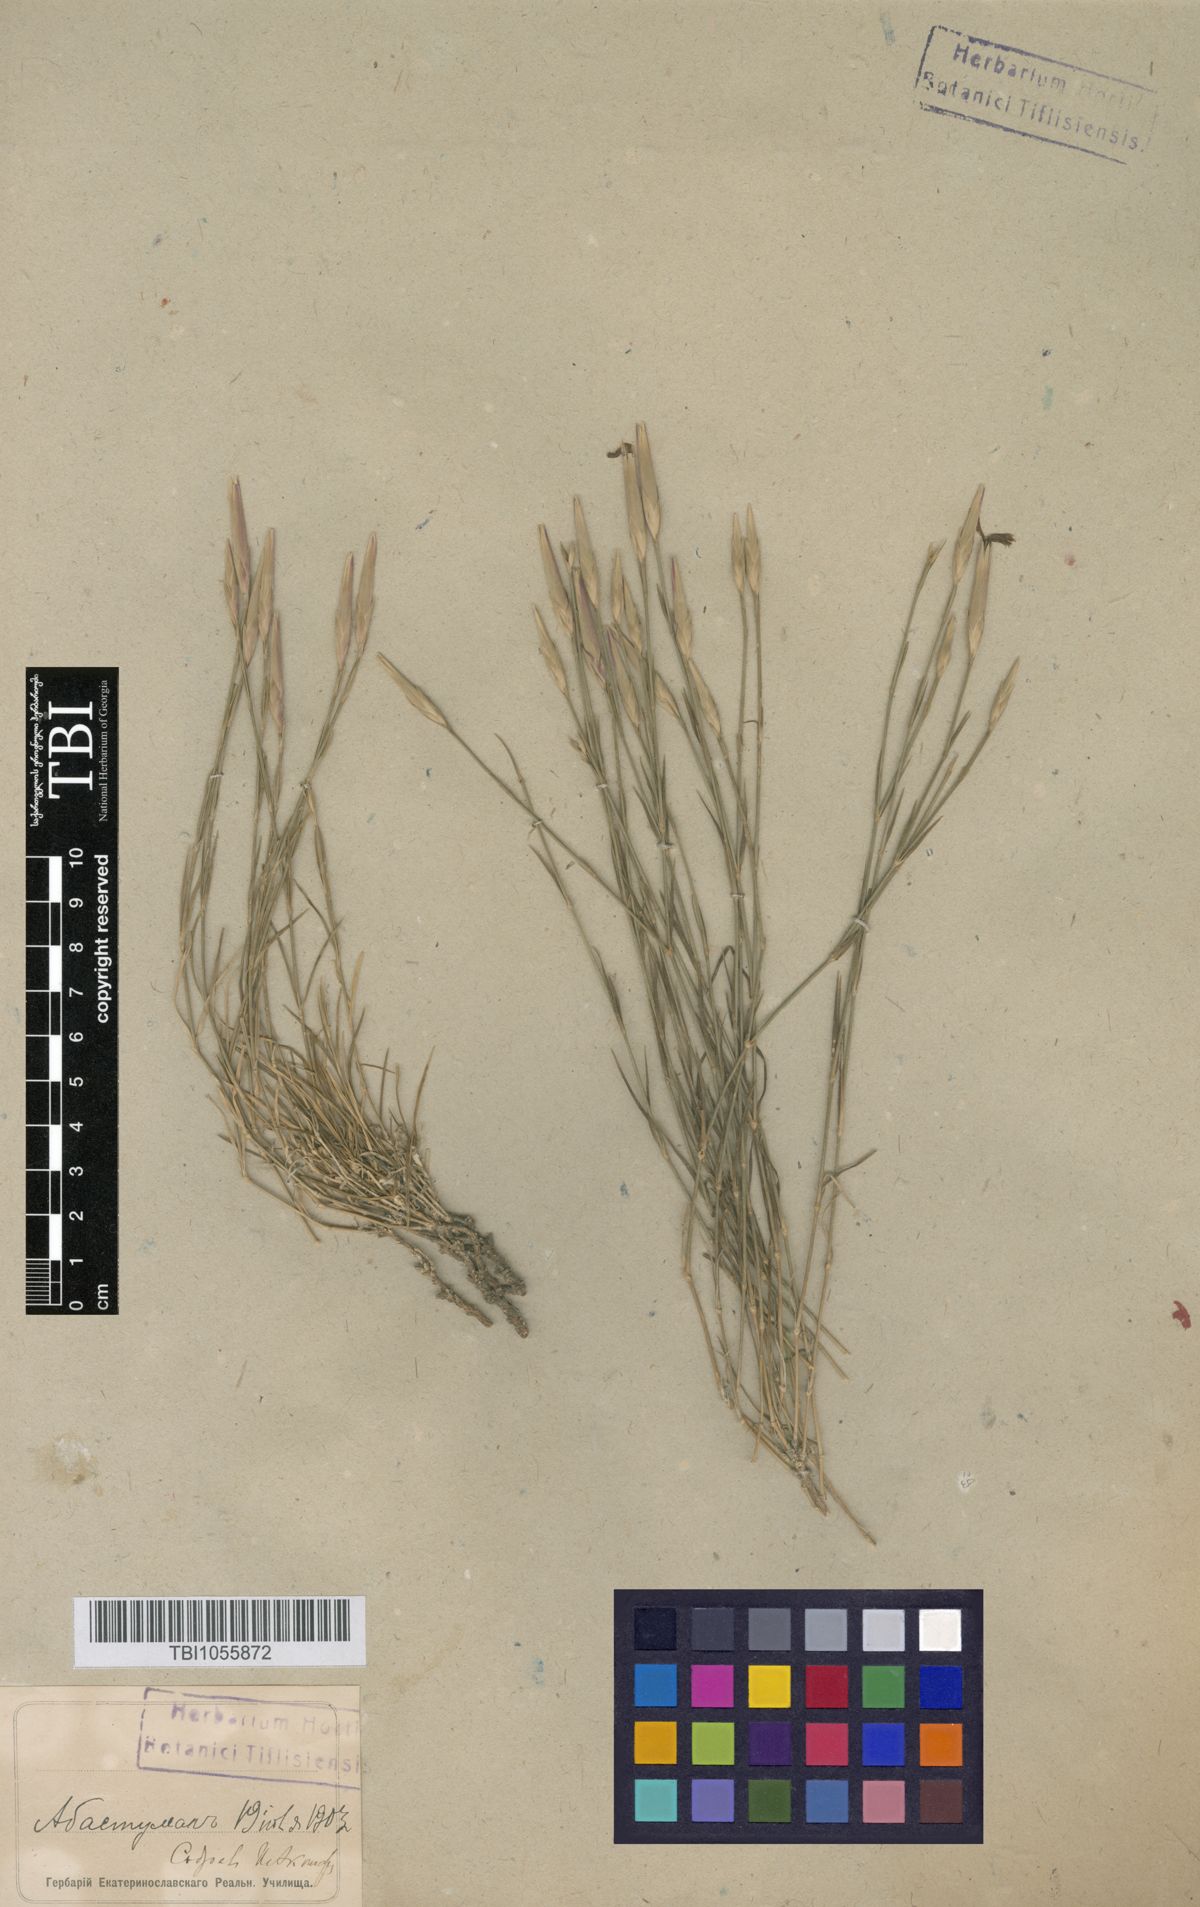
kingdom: Plantae
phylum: Tracheophyta
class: Magnoliopsida
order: Caryophyllales
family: Caryophyllaceae
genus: Dianthus
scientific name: Dianthus orientalis
